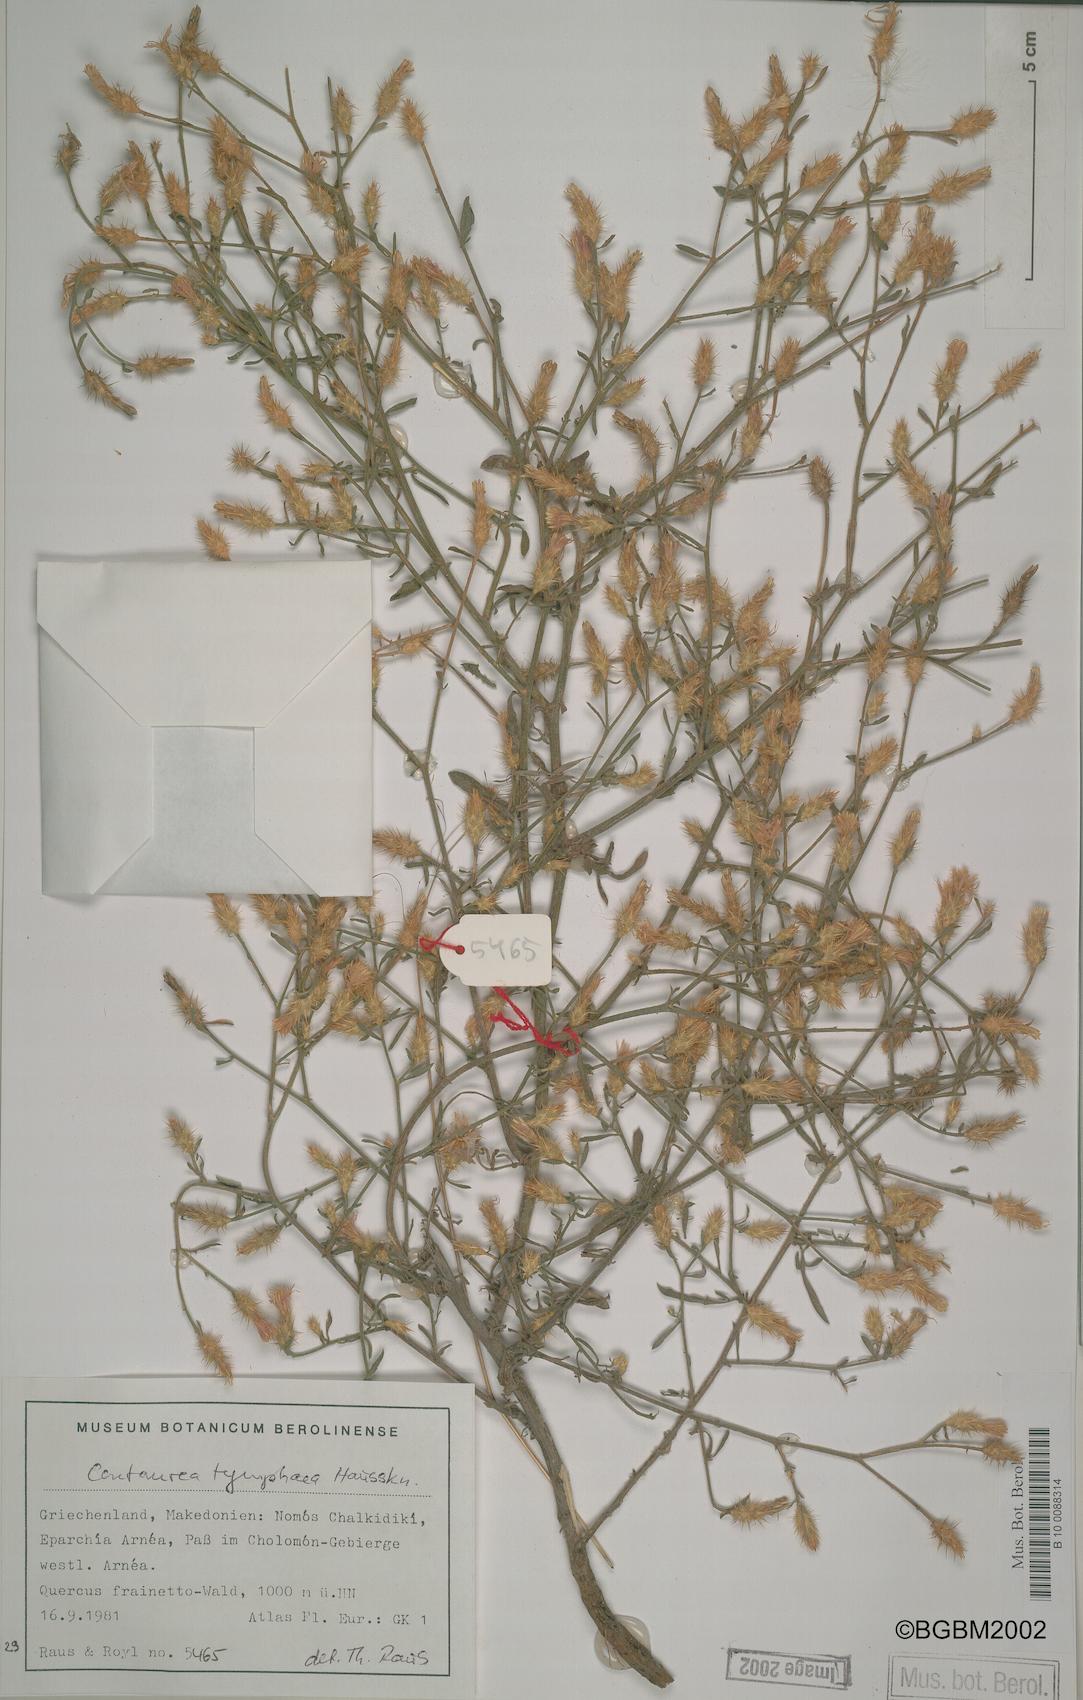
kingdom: Plantae
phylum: Tracheophyta
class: Magnoliopsida
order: Asterales
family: Asteraceae
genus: Centaurea
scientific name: Centaurea tymphaea
